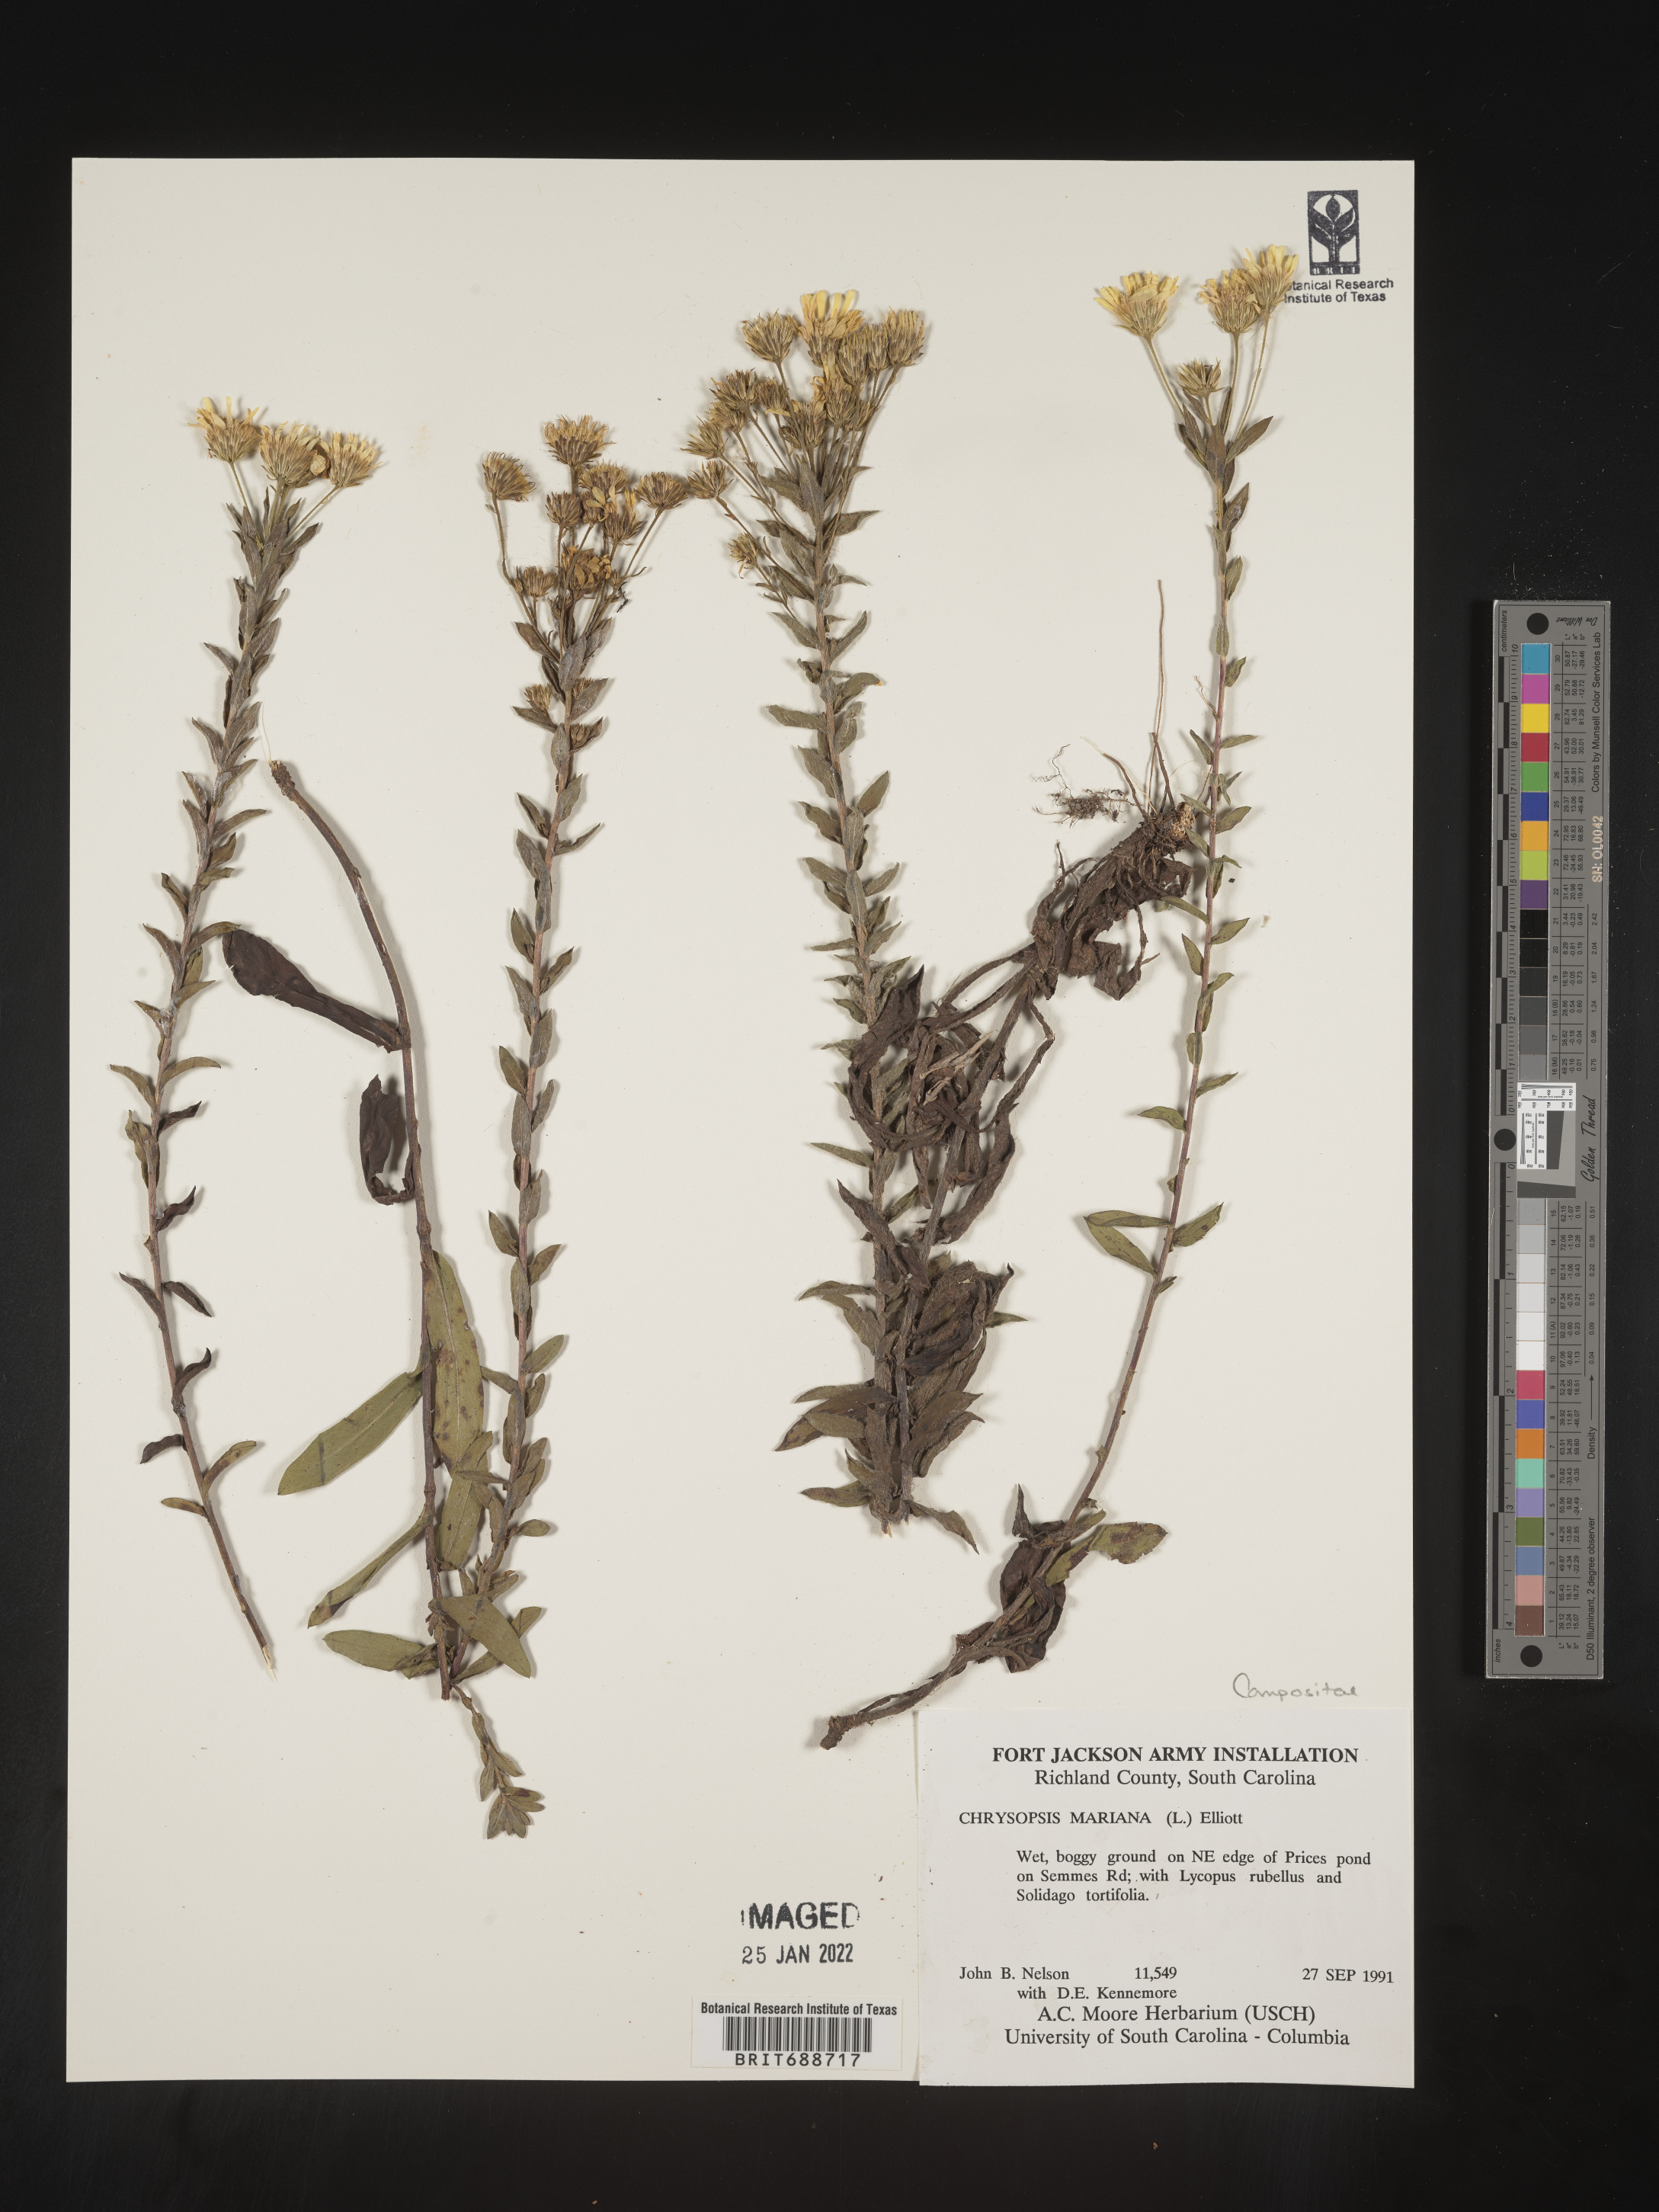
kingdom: Plantae
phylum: Tracheophyta
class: Magnoliopsida
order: Asterales
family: Asteraceae
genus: Chrysopsis
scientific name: Chrysopsis mariana
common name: Maryland golden-aster
